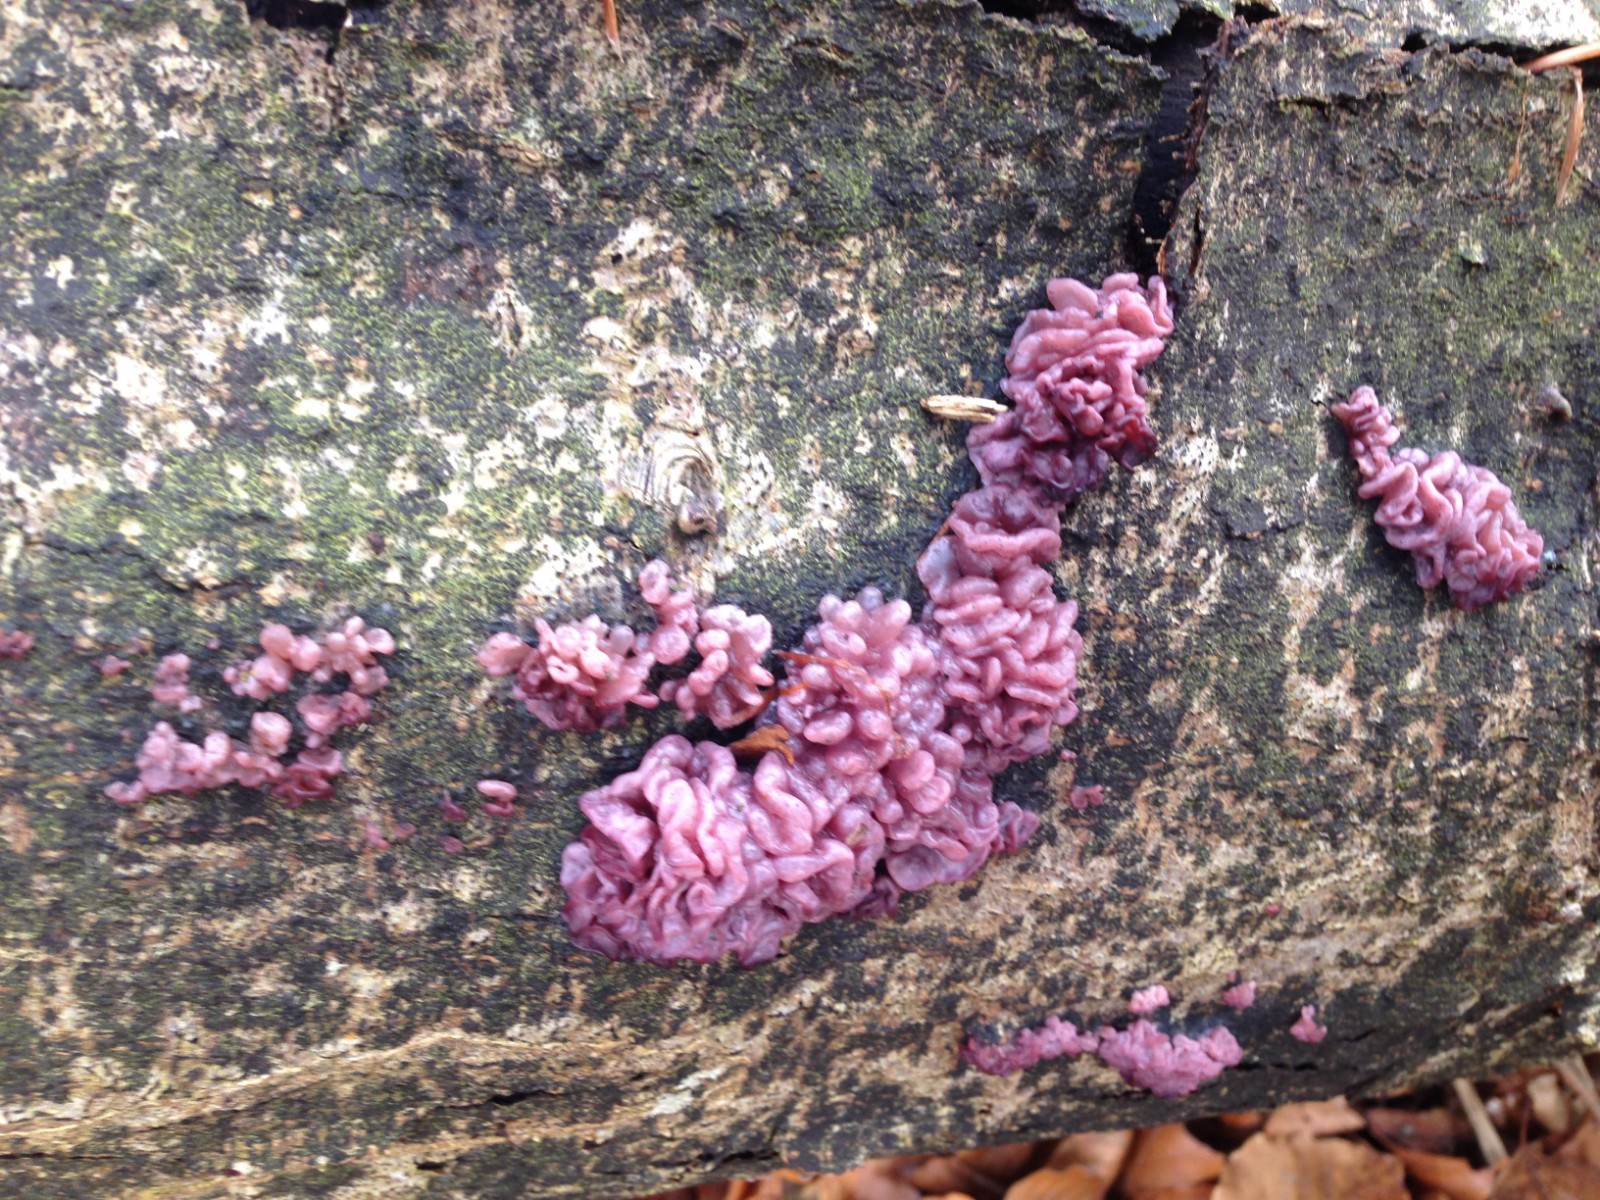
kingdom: Fungi
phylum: Ascomycota
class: Leotiomycetes
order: Helotiales
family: Gelatinodiscaceae
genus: Ascocoryne
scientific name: Ascocoryne sarcoides
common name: rødlilla sejskive
